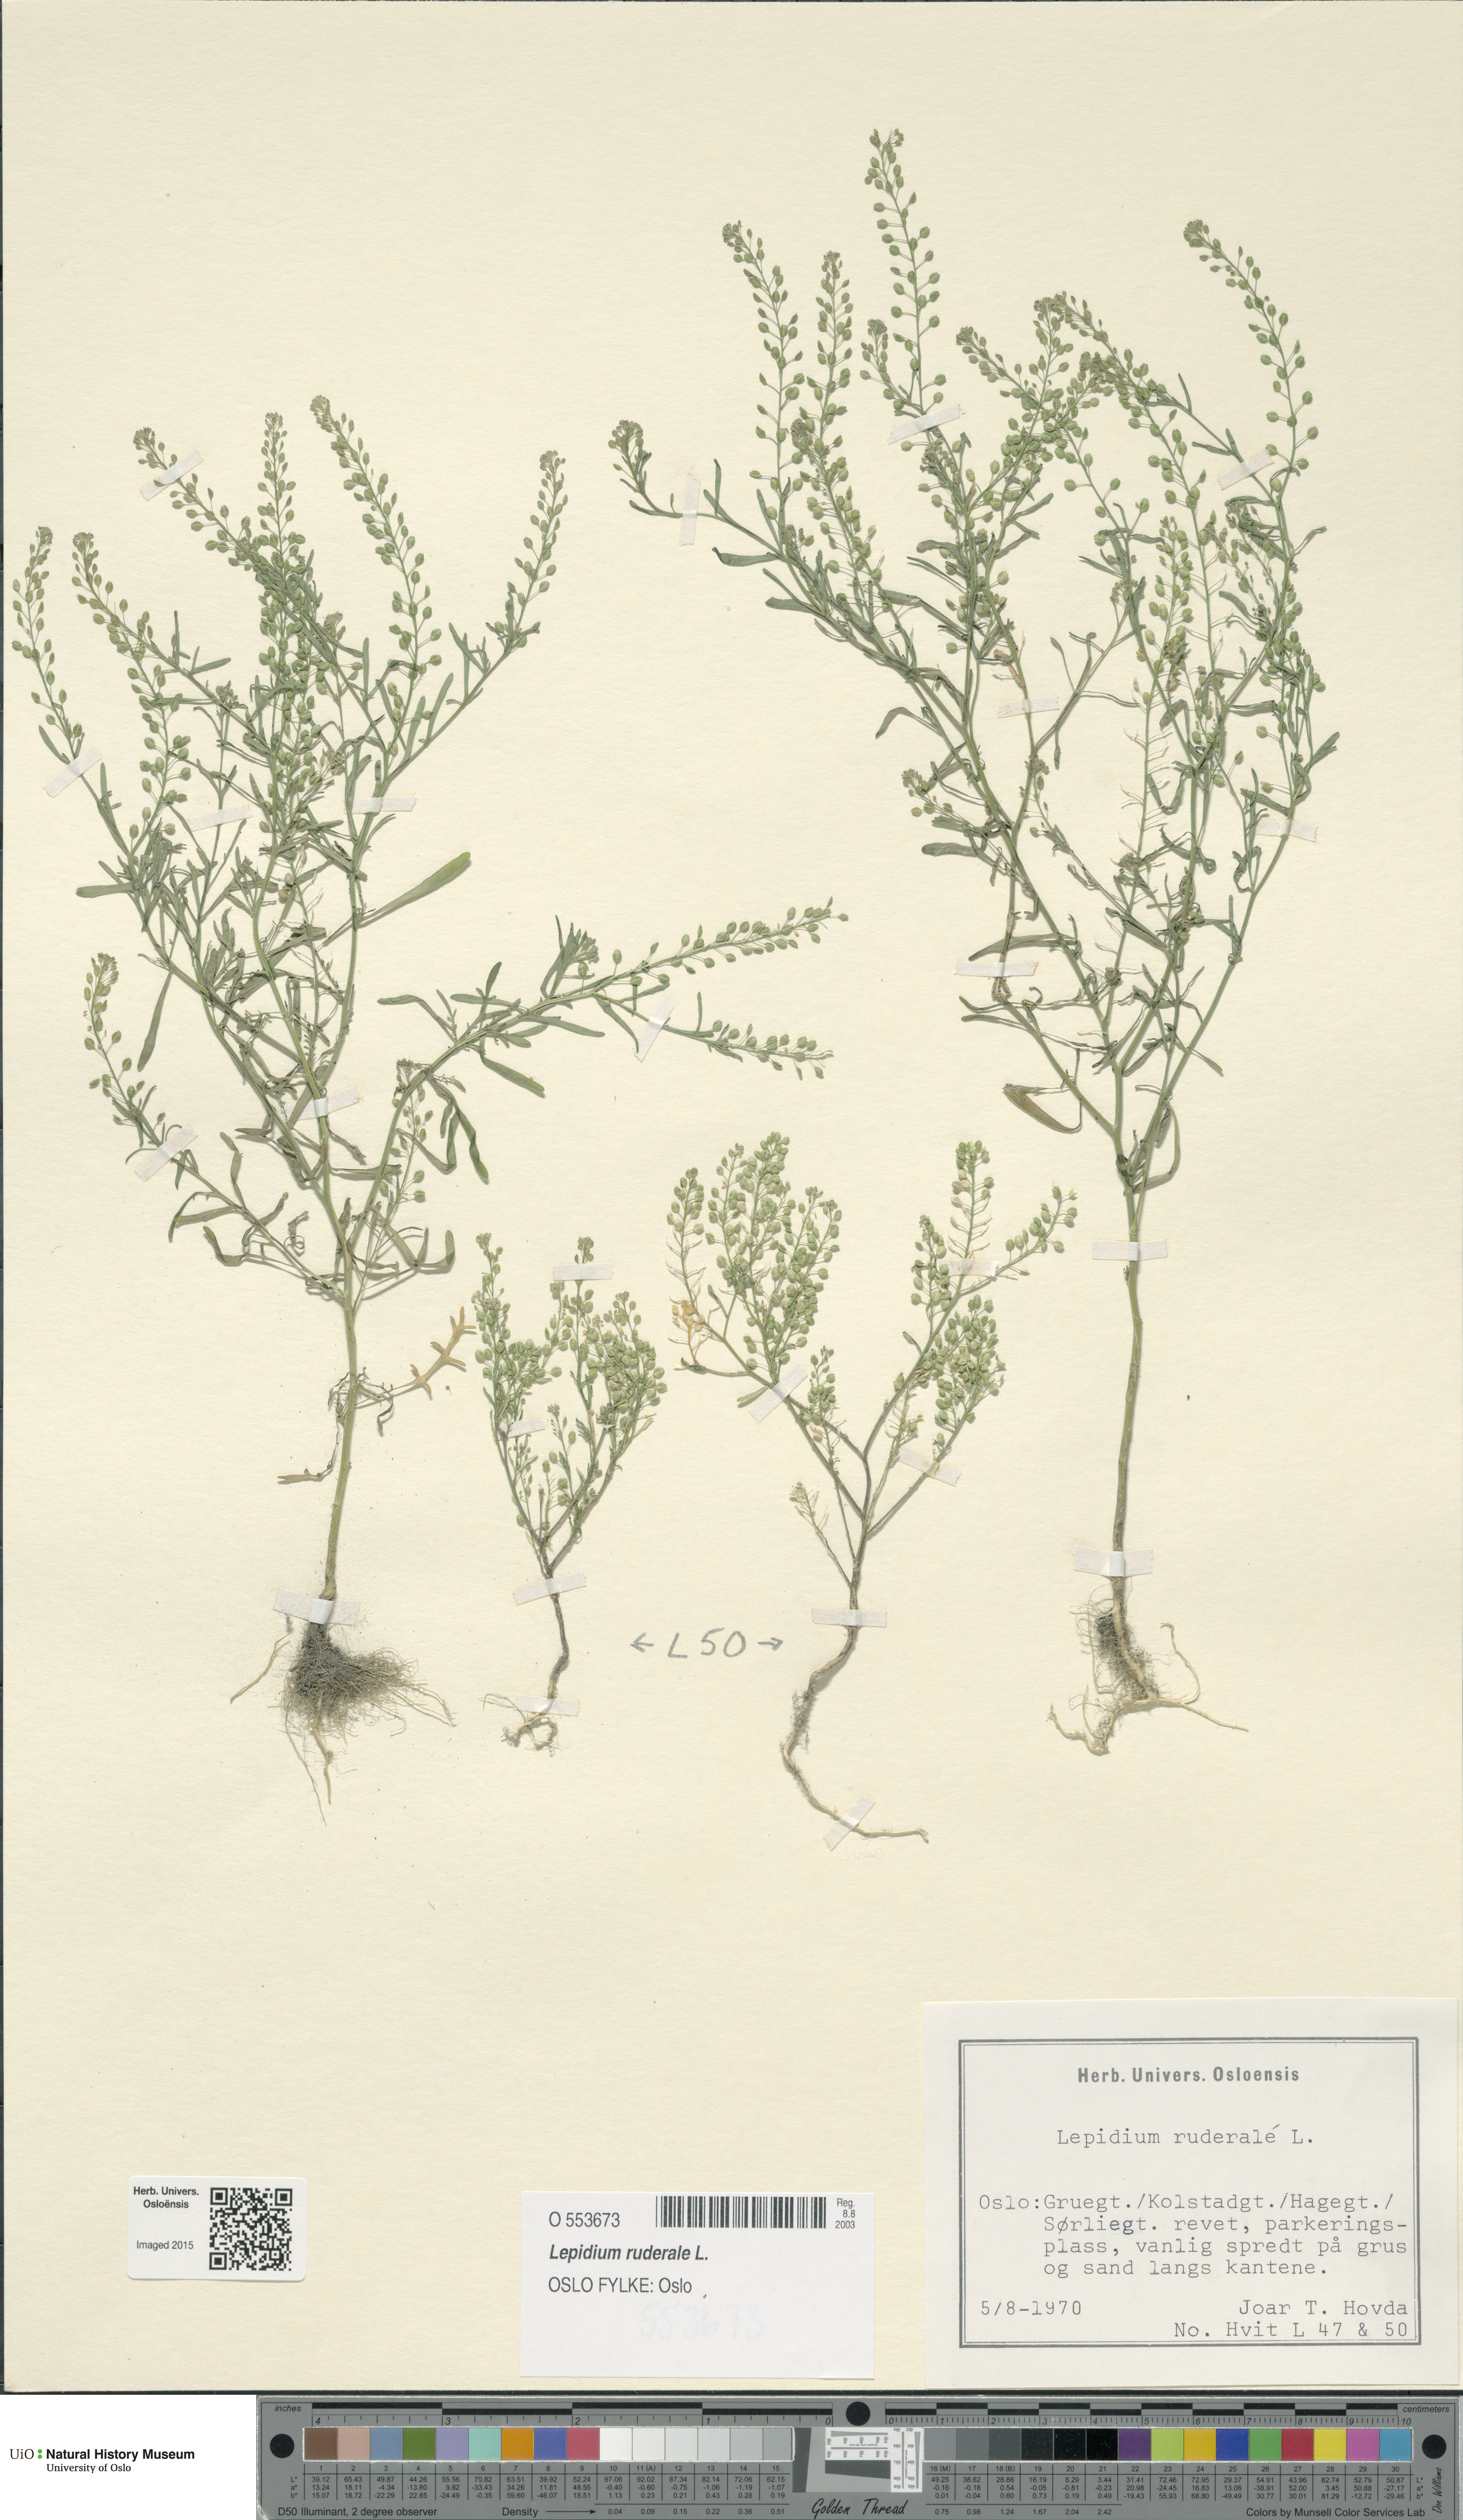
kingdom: Plantae
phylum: Tracheophyta
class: Magnoliopsida
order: Brassicales
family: Brassicaceae
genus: Lepidium
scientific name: Lepidium ruderale
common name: Narrow-leaved pepperwort
